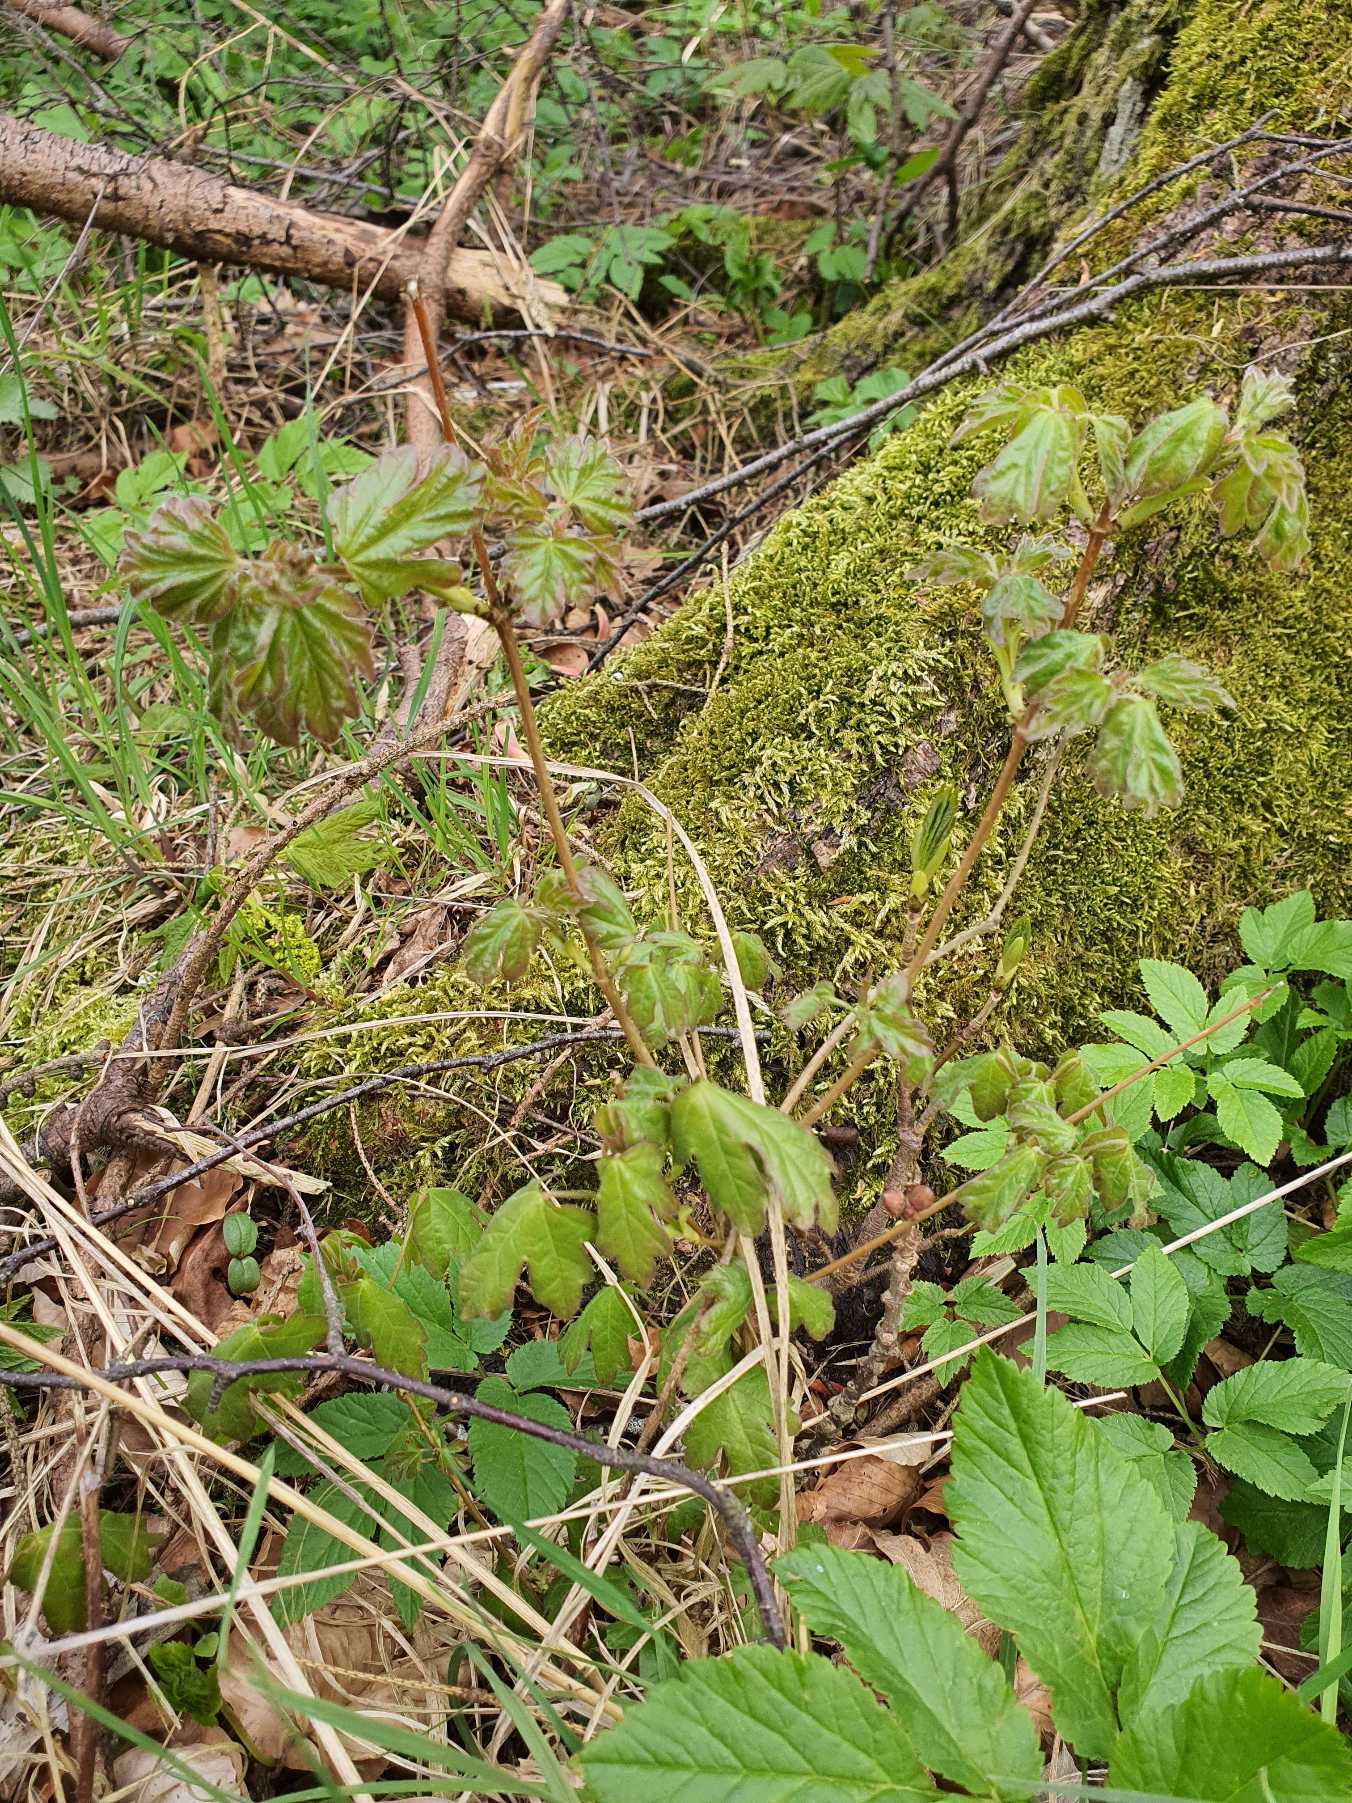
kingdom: Plantae
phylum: Tracheophyta
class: Magnoliopsida
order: Sapindales
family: Sapindaceae
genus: Acer
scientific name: Acer campestre
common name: Navr
